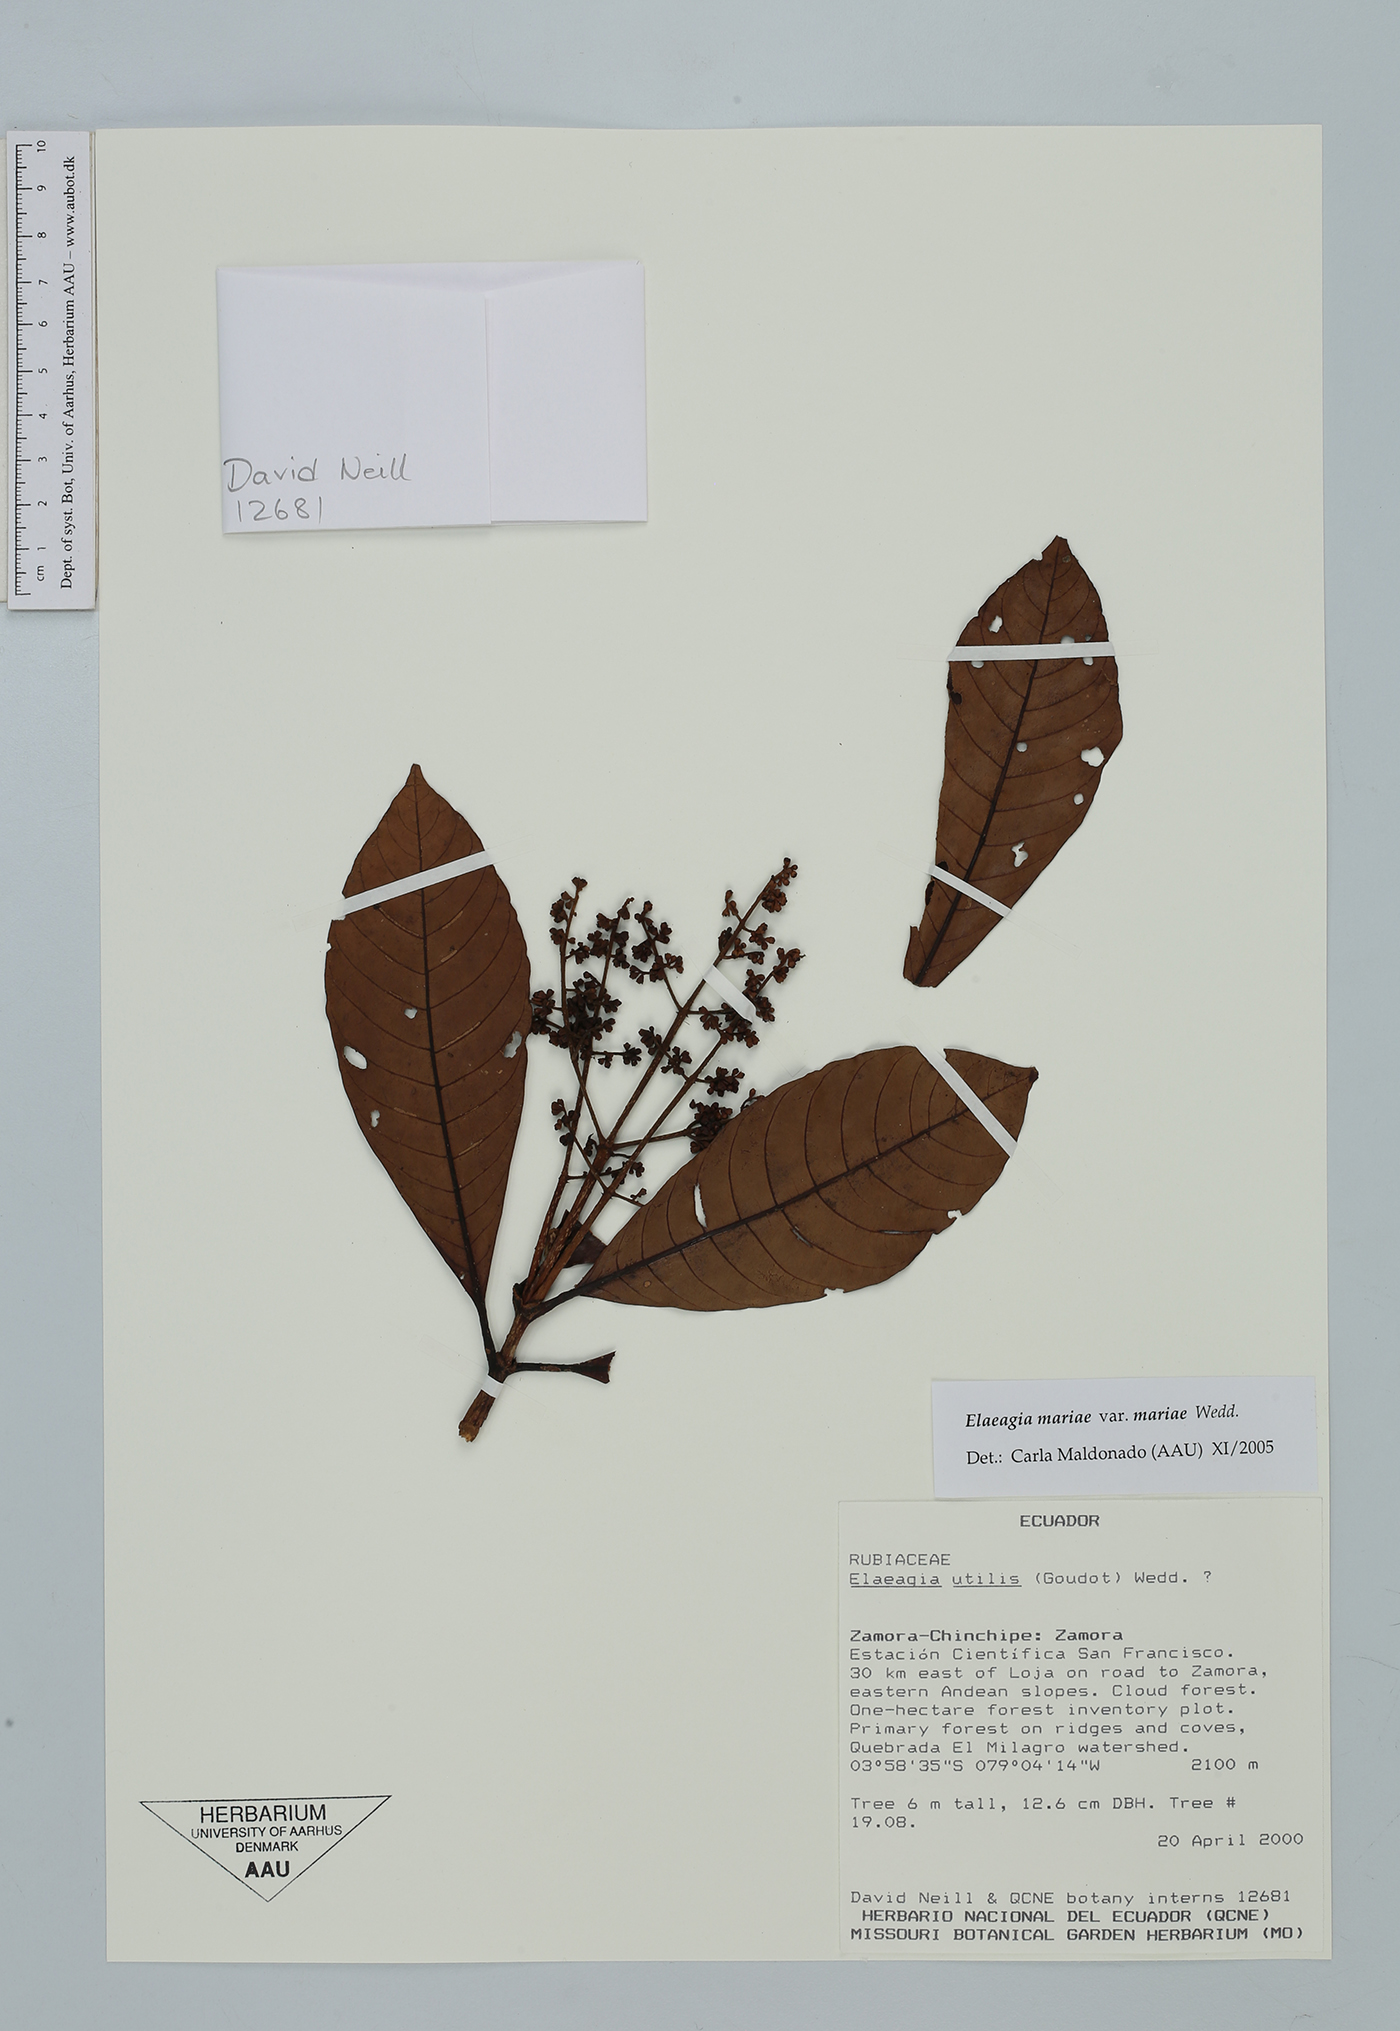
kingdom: Plantae
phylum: Tracheophyta
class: Magnoliopsida
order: Gentianales
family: Rubiaceae
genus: Elaeagia
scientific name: Elaeagia mariae
